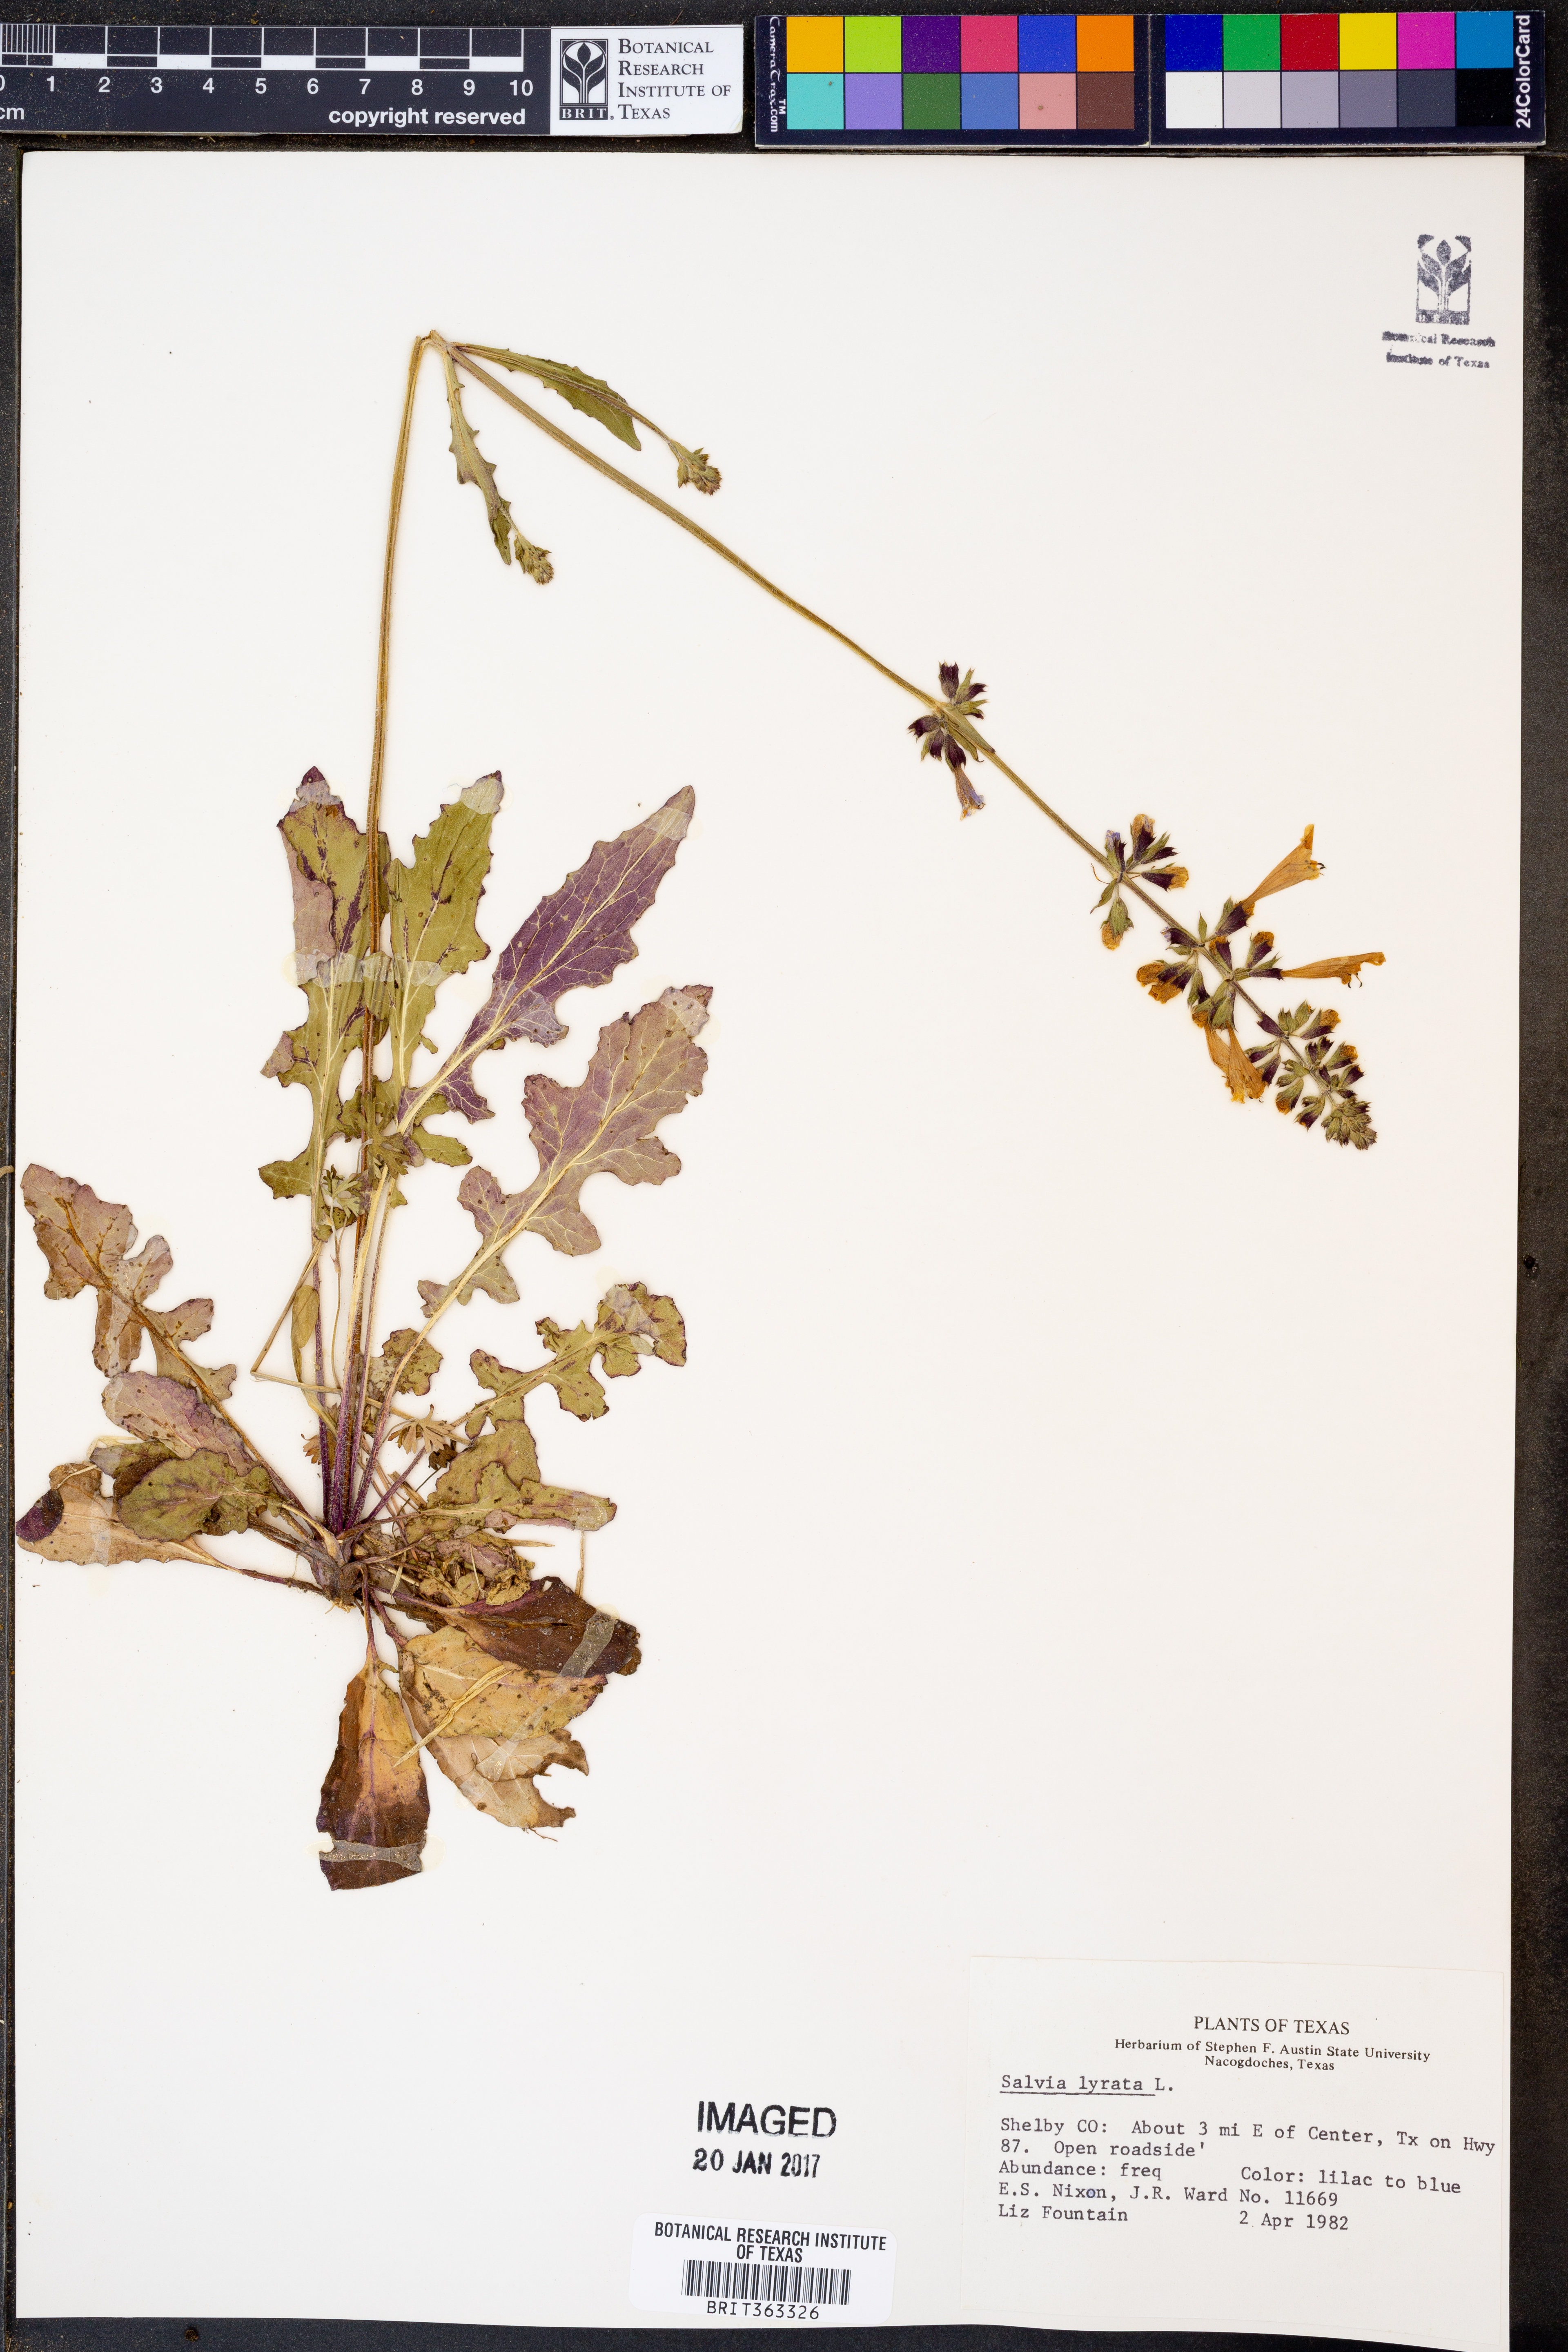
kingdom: Plantae
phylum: Tracheophyta
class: Magnoliopsida
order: Lamiales
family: Lamiaceae
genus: Salvia
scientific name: Salvia lyrata
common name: Cancerweed
